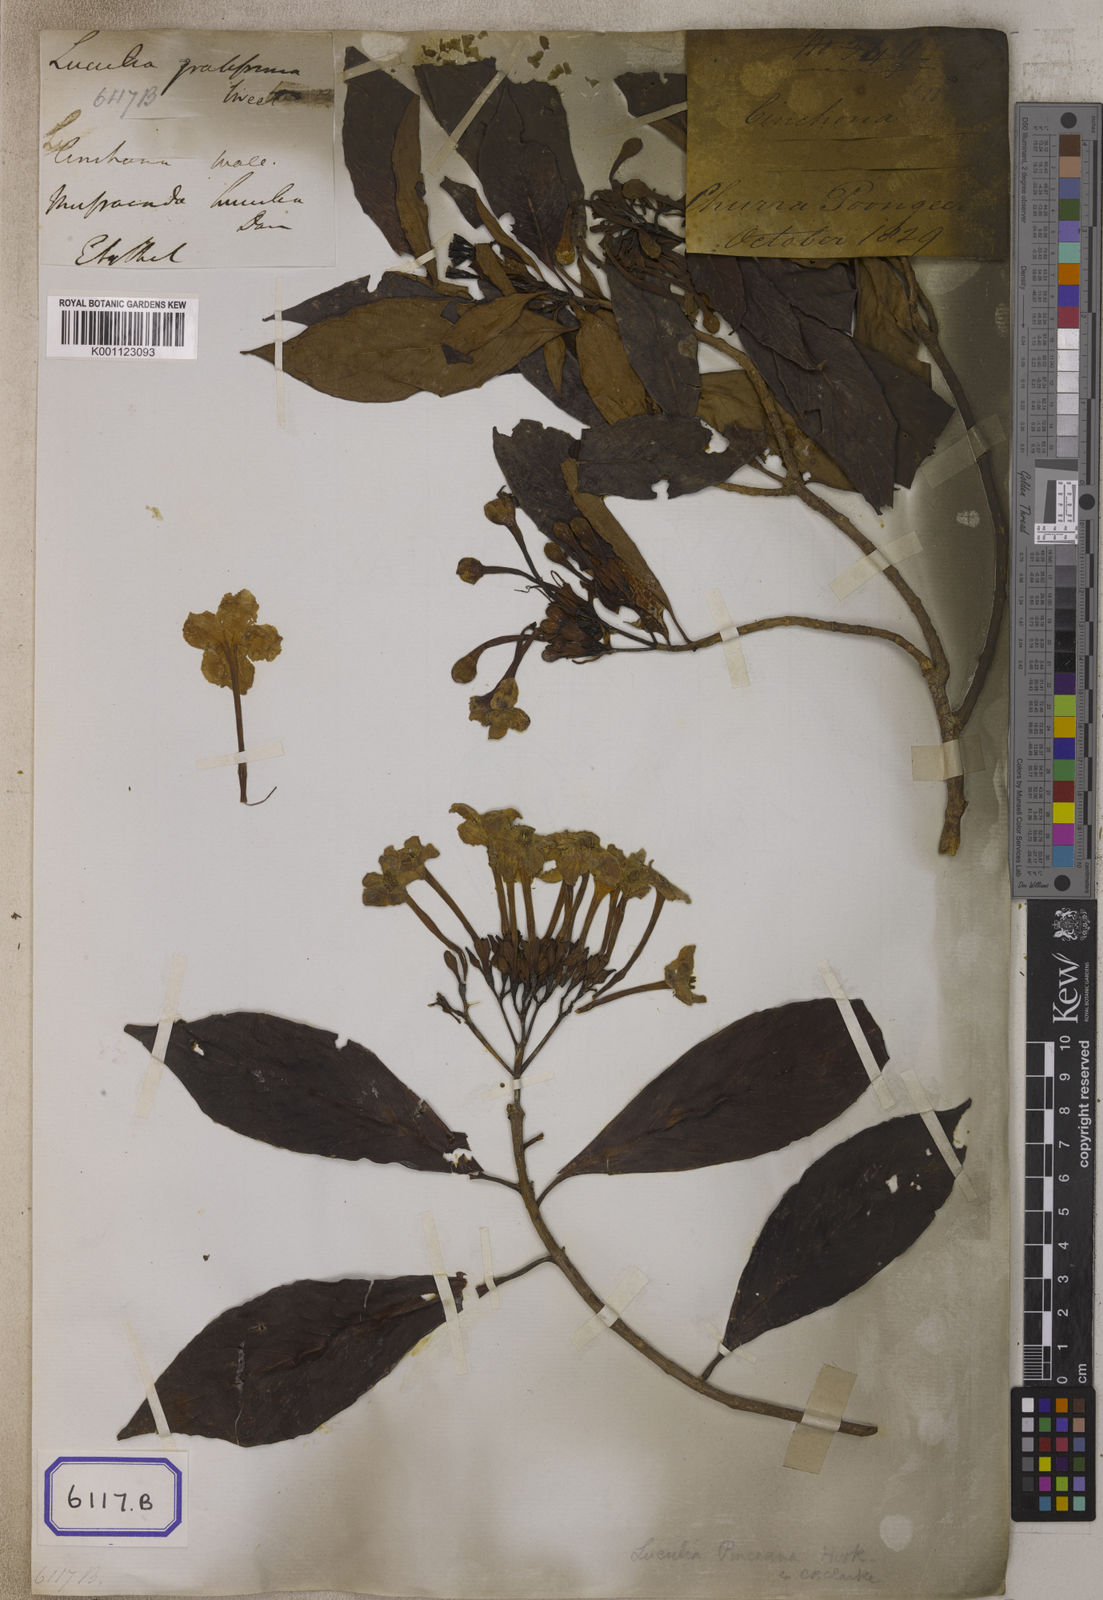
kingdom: Plantae
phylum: Tracheophyta
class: Magnoliopsida
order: Gentianales
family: Rubiaceae
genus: Luculia
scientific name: Luculia gratissima
